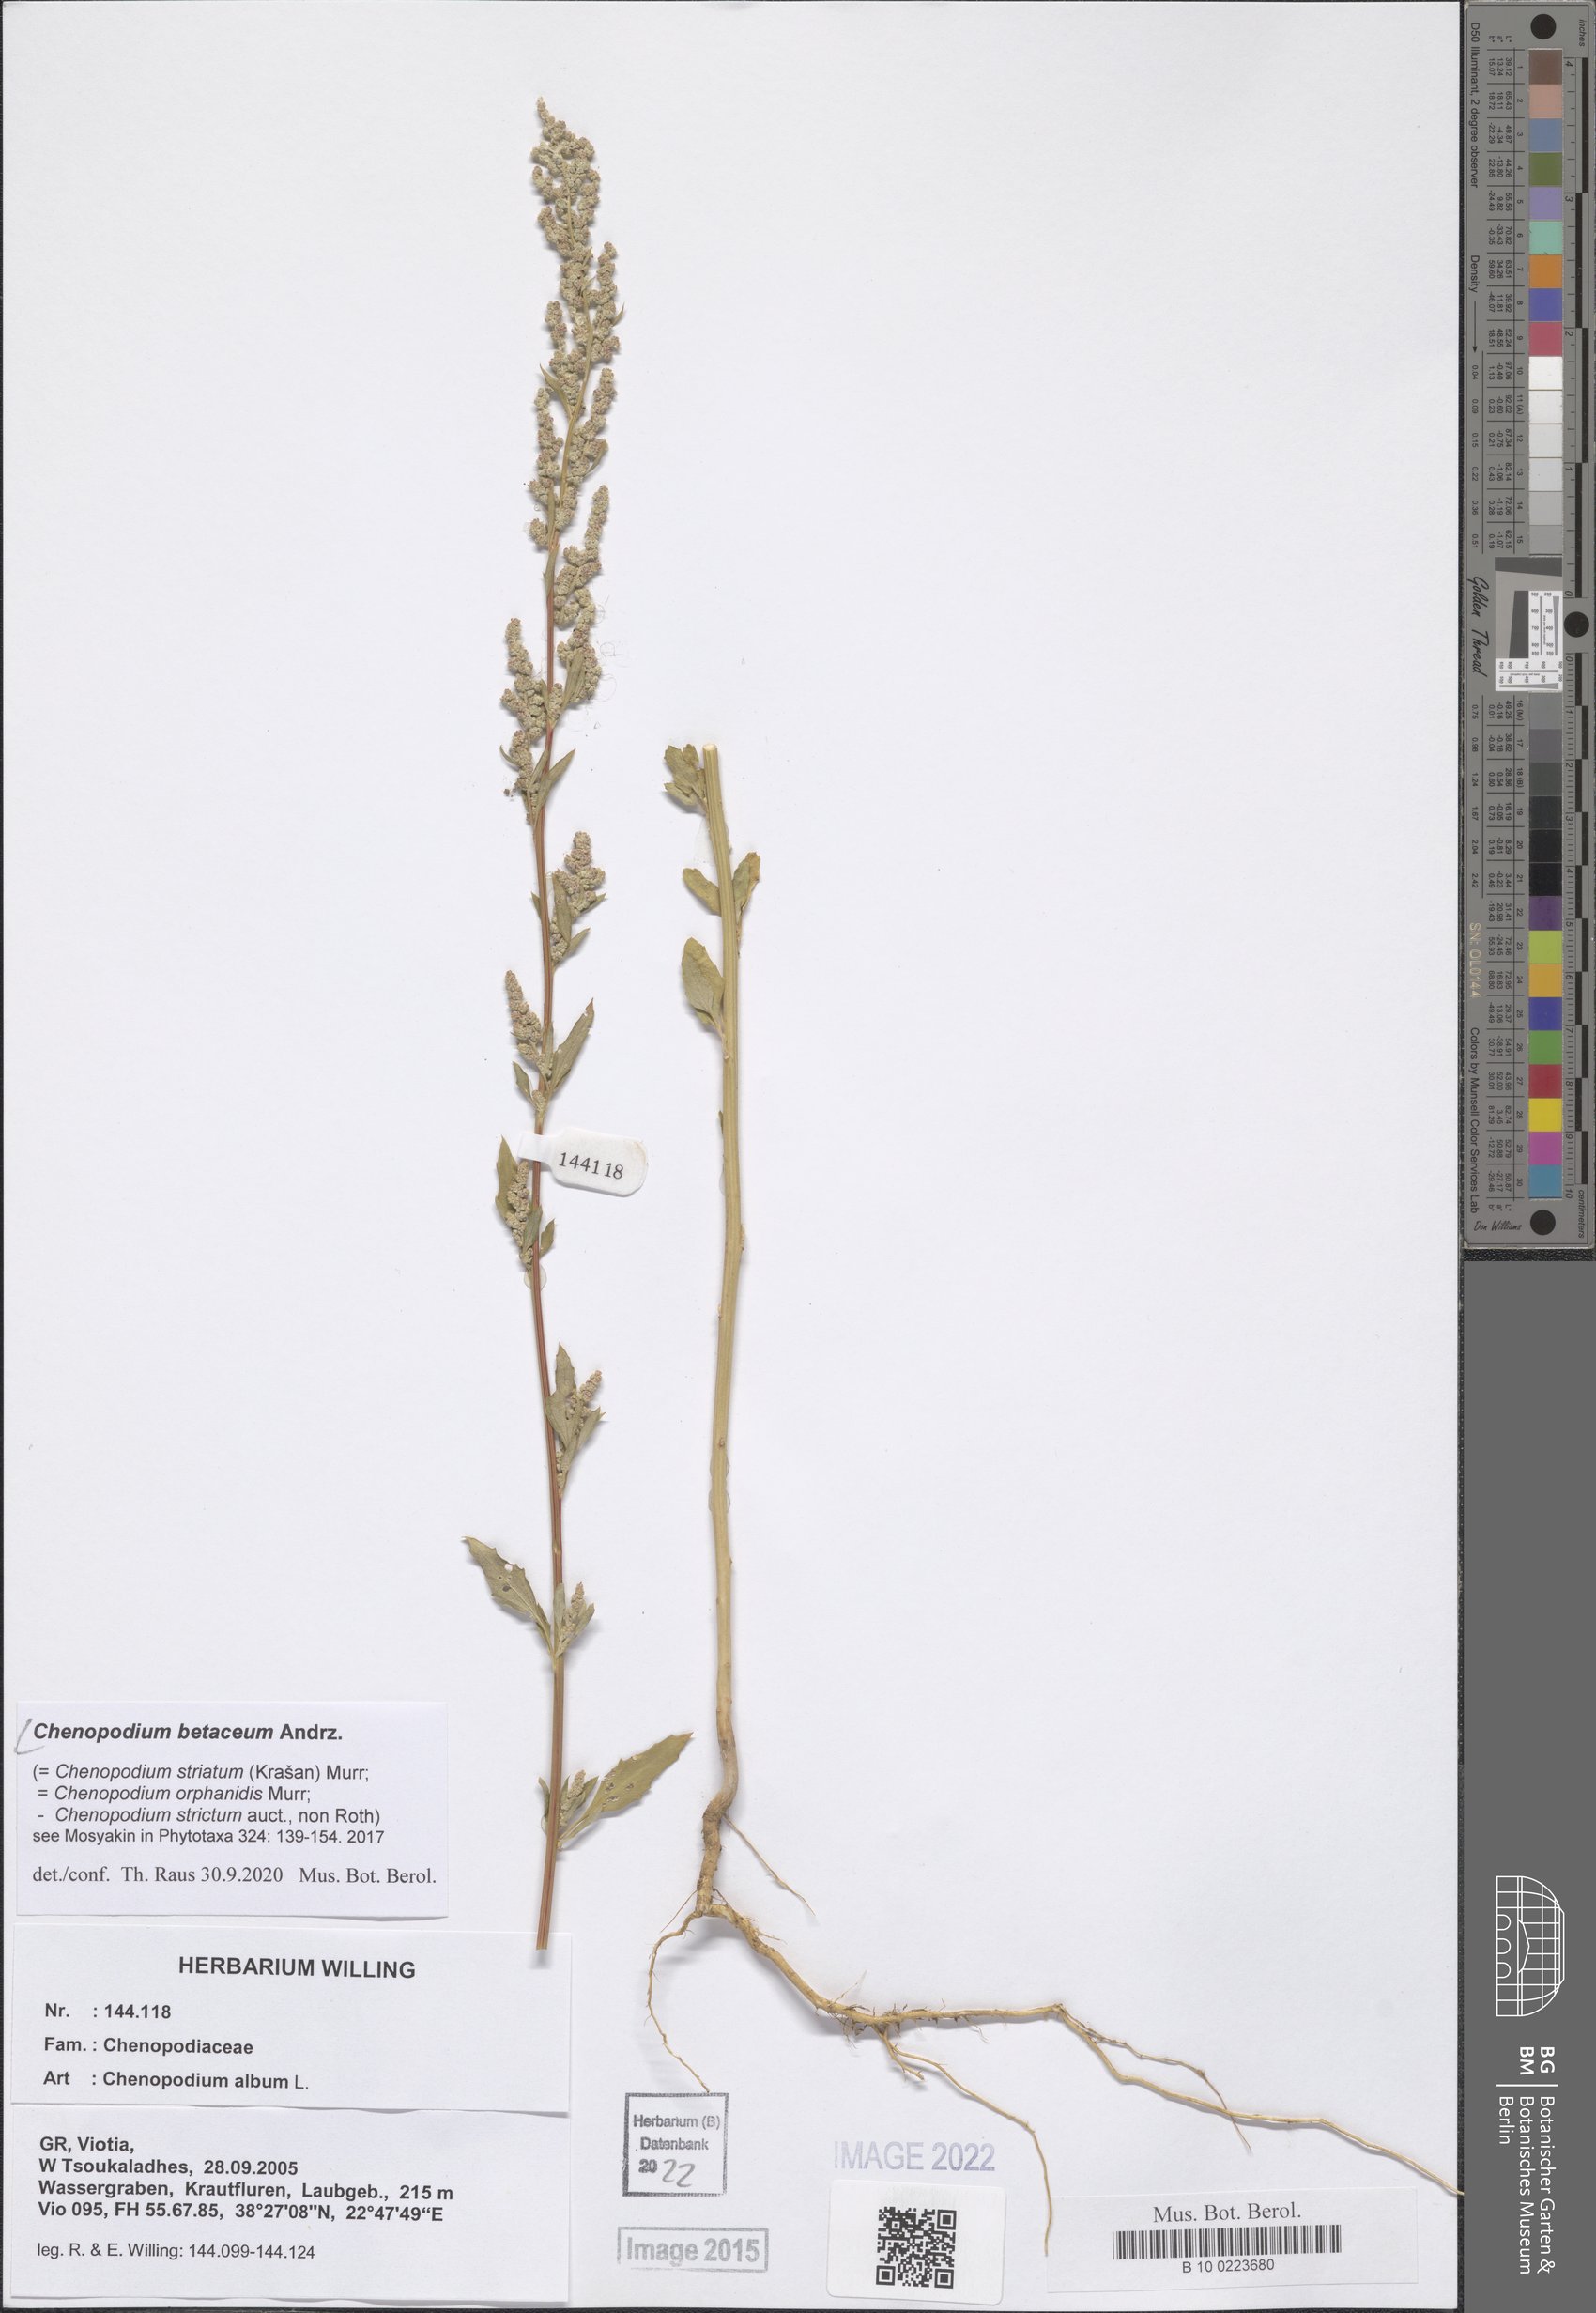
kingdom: Plantae
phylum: Tracheophyta
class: Magnoliopsida
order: Caryophyllales
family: Amaranthaceae
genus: Chenopodium
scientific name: Chenopodium betaceum
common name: Striped goosefoot
